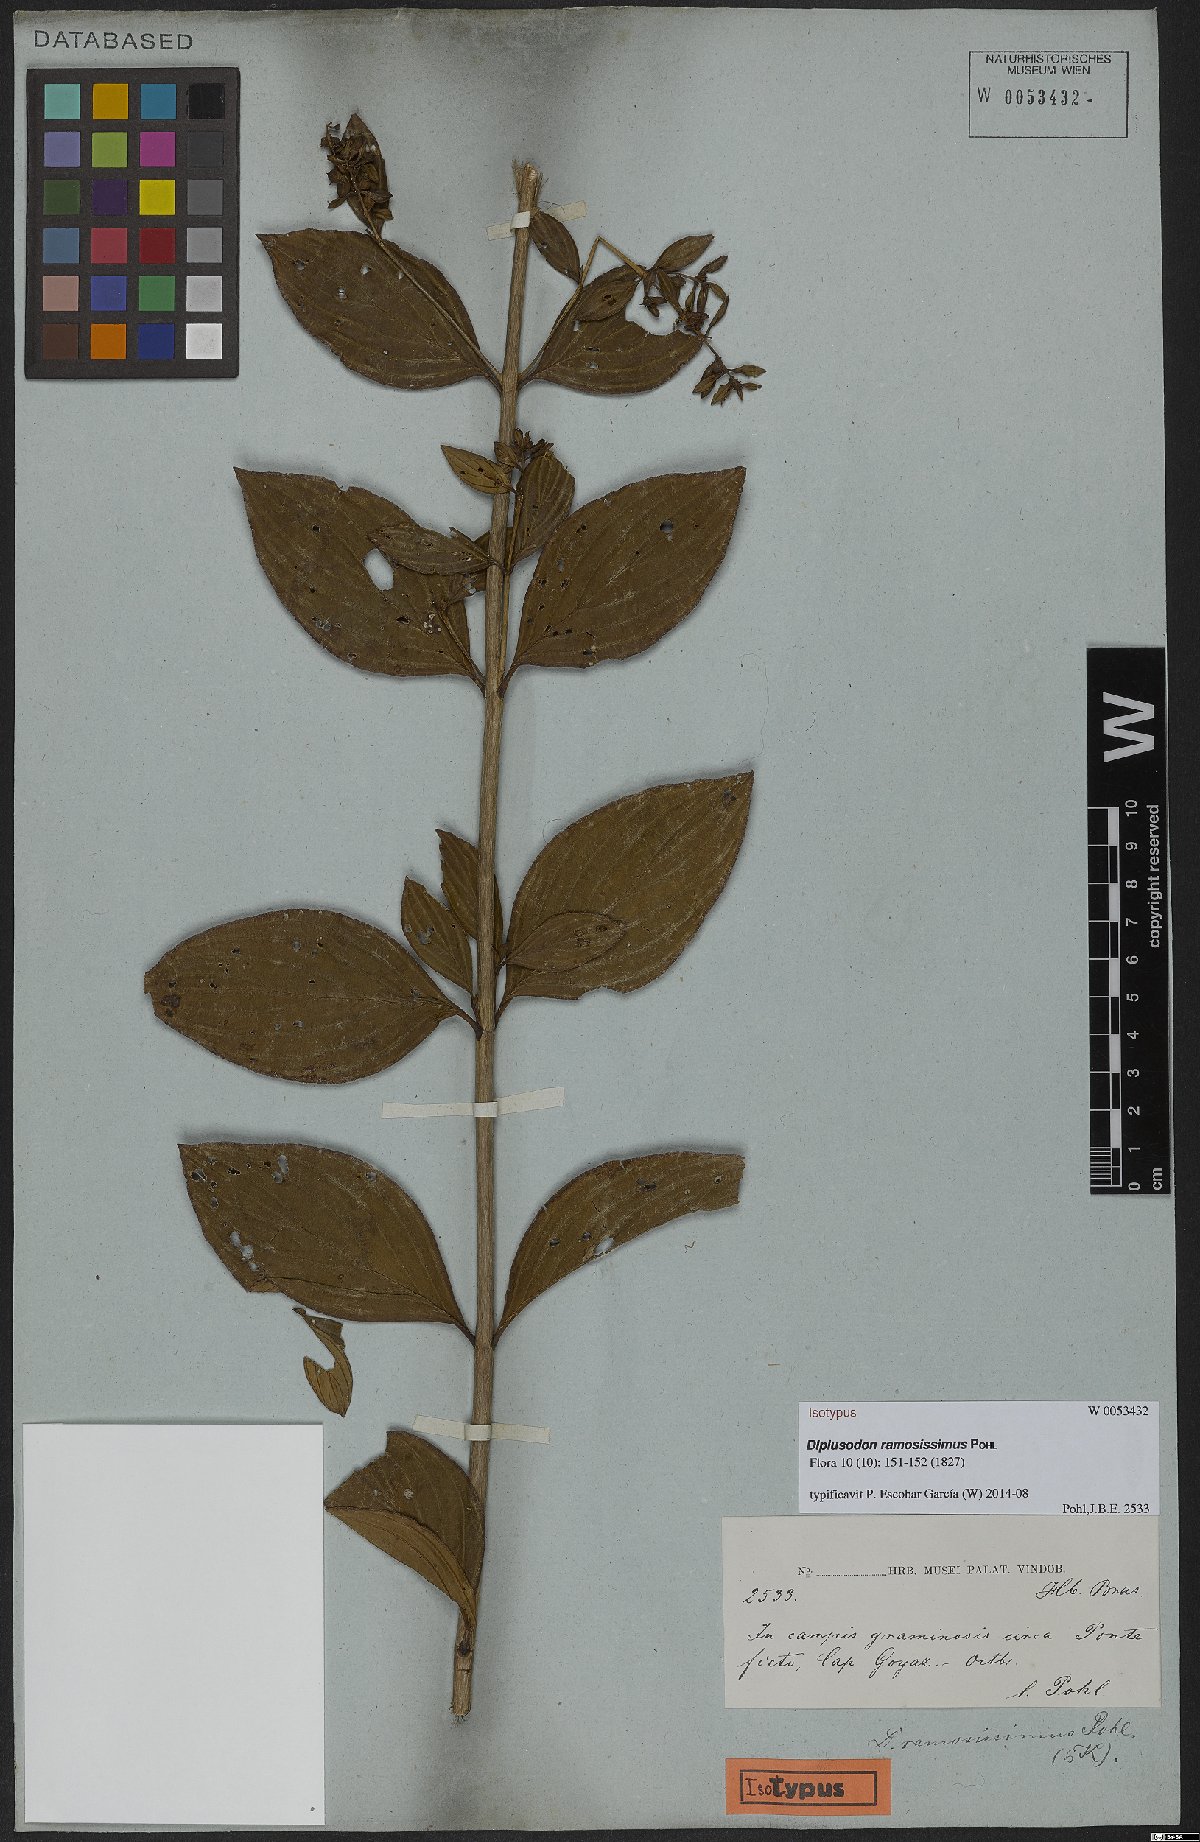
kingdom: Plantae
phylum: Tracheophyta
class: Magnoliopsida
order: Myrtales
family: Lythraceae
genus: Diplusodon
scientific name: Diplusodon ramosissimus
